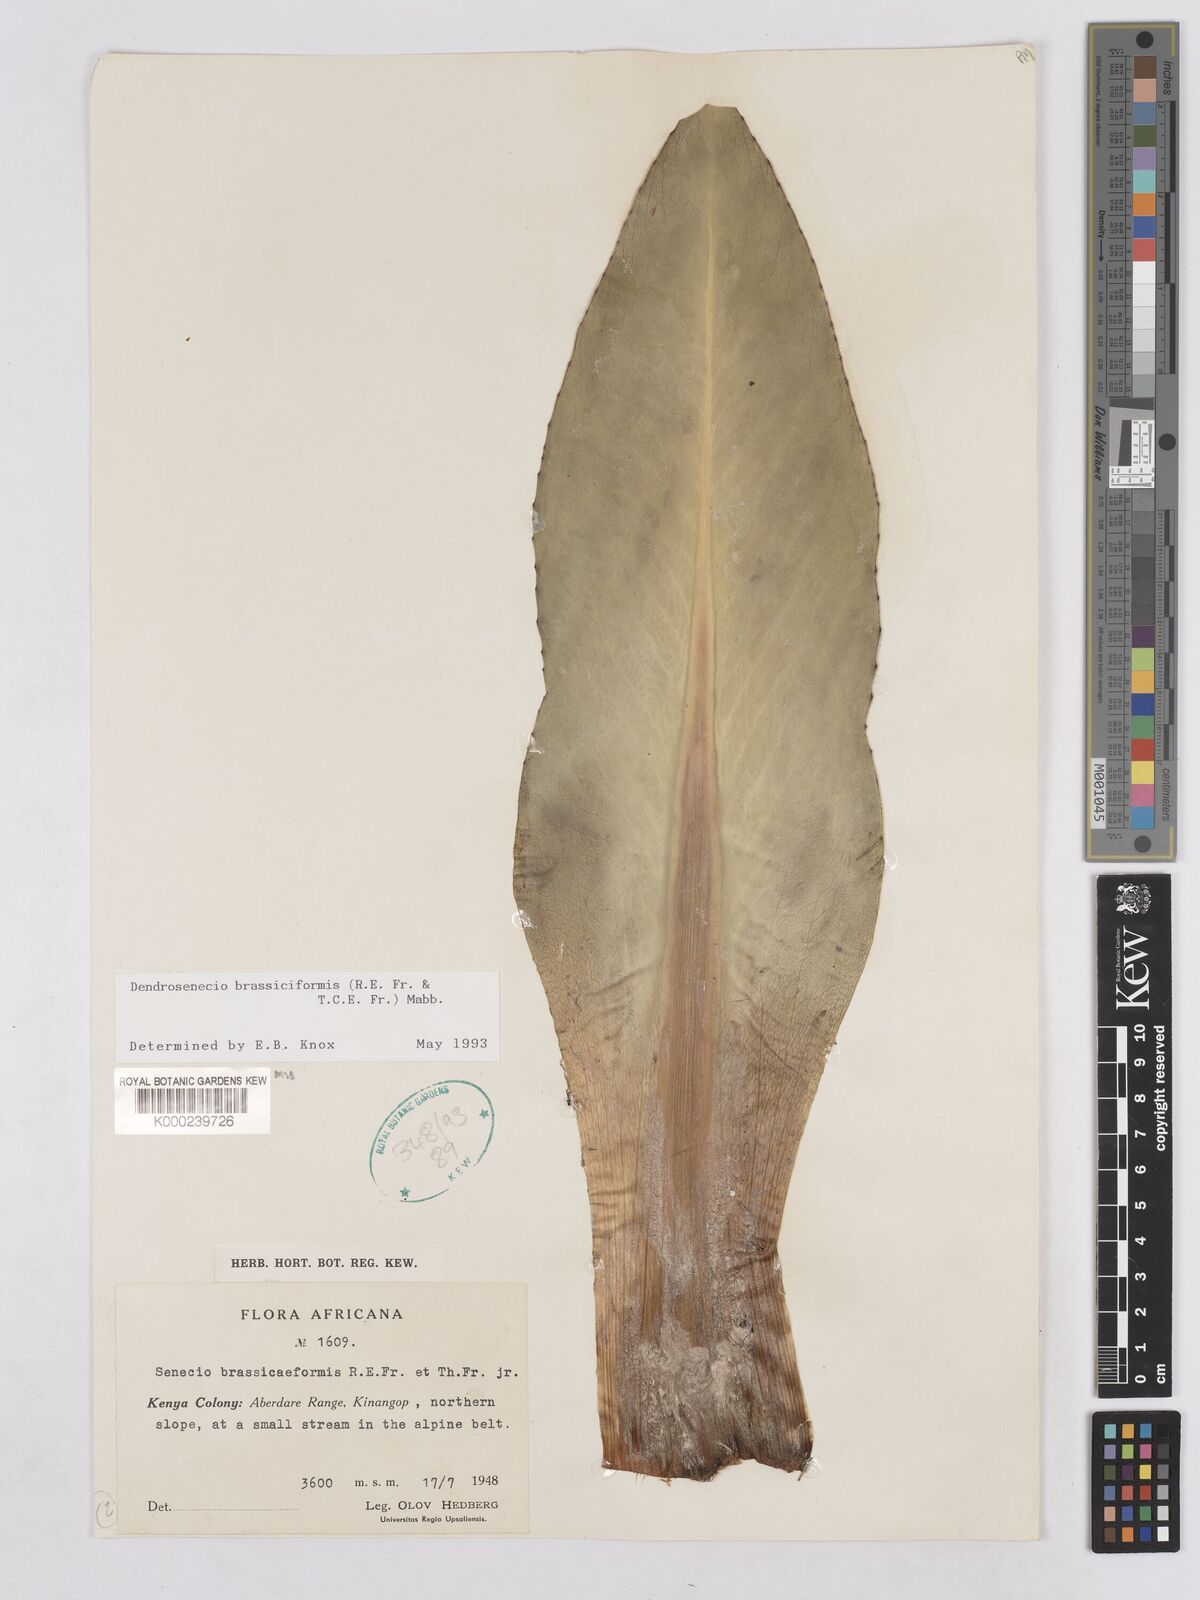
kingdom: Plantae
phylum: Tracheophyta
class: Magnoliopsida
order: Asterales
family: Asteraceae
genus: Dendrosenecio
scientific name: Dendrosenecio brassiciformis
